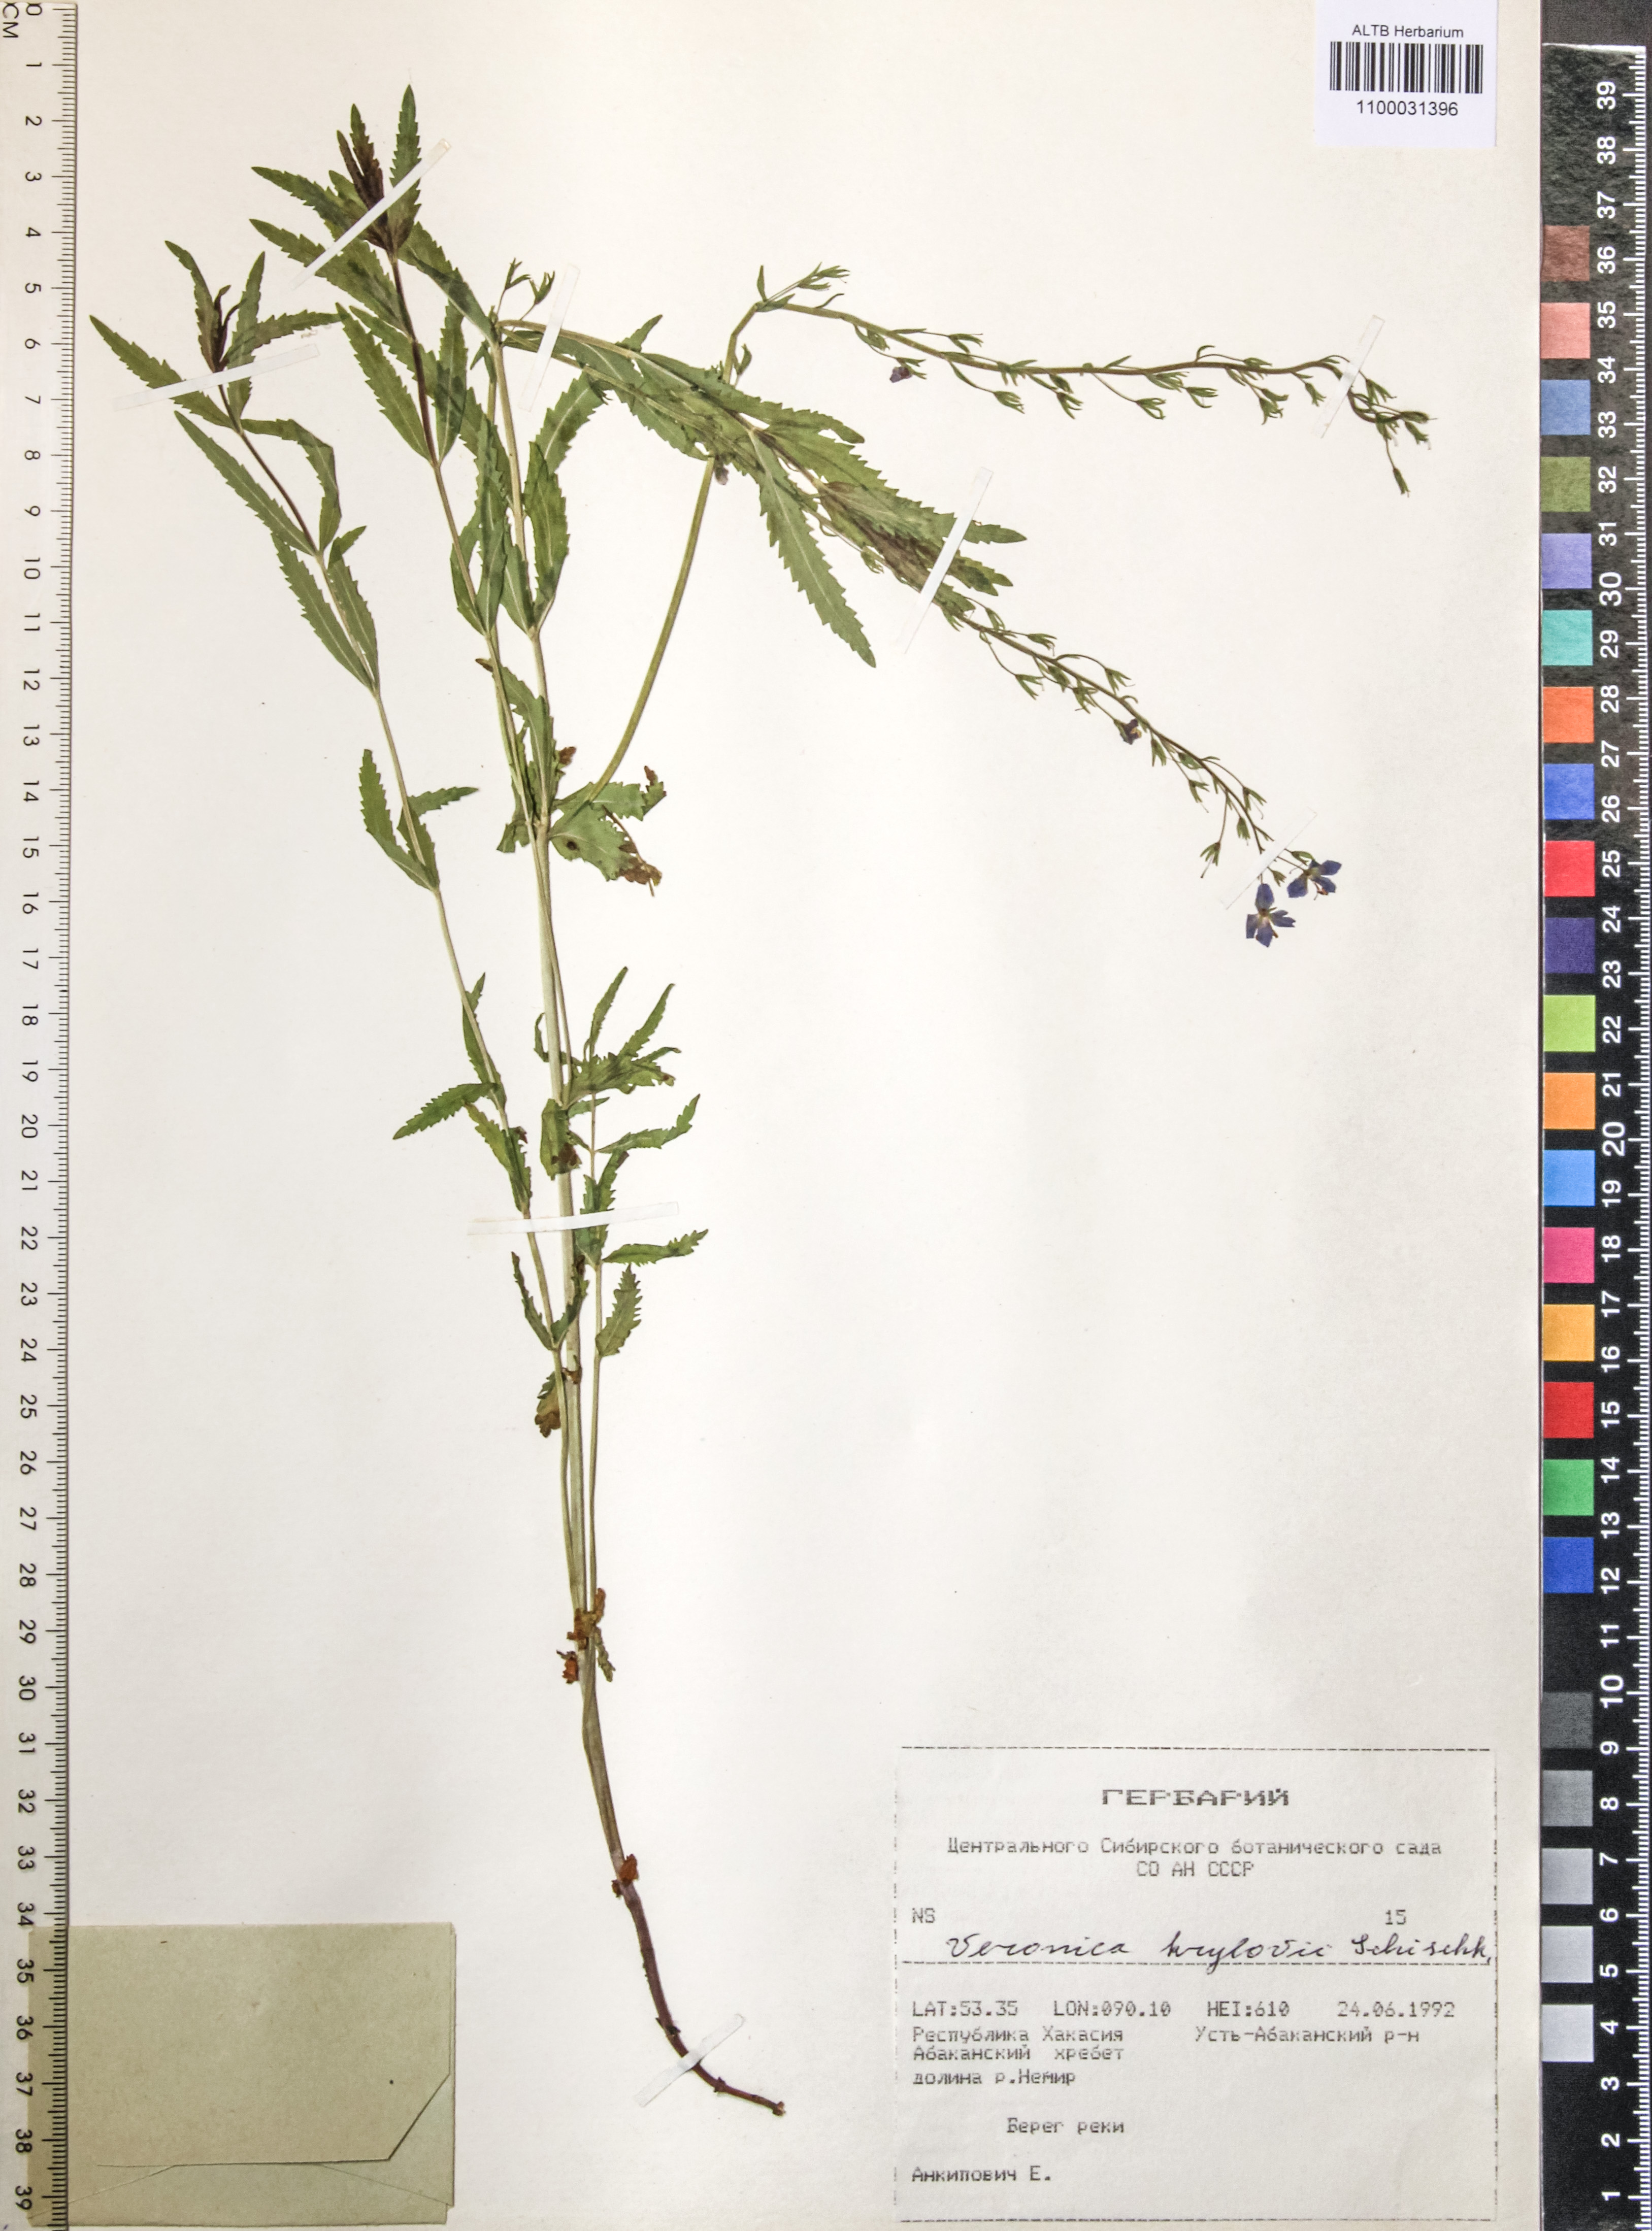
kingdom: Plantae
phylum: Tracheophyta
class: Magnoliopsida
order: Lamiales
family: Plantaginaceae
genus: Veronica
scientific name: Veronica krylovii
